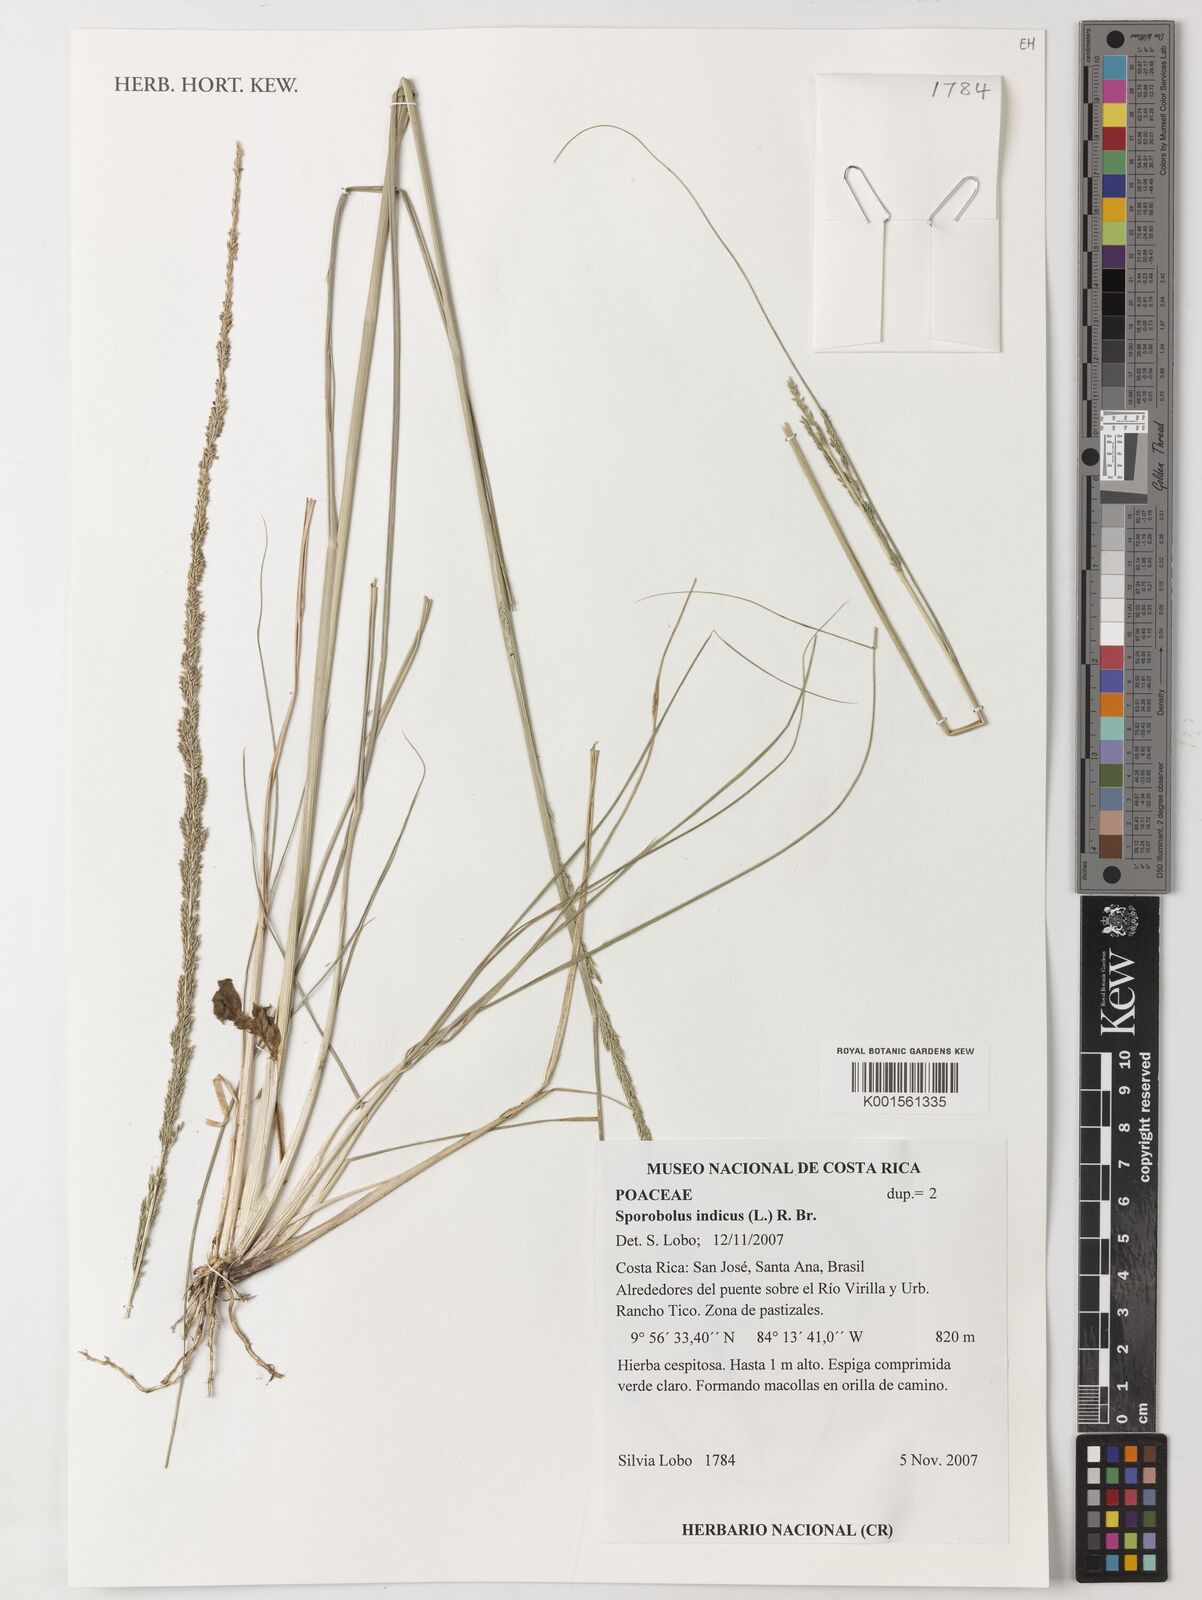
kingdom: Plantae
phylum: Tracheophyta
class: Liliopsida
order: Poales
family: Poaceae
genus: Sporobolus
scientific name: Sporobolus indicus
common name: Smut grass
